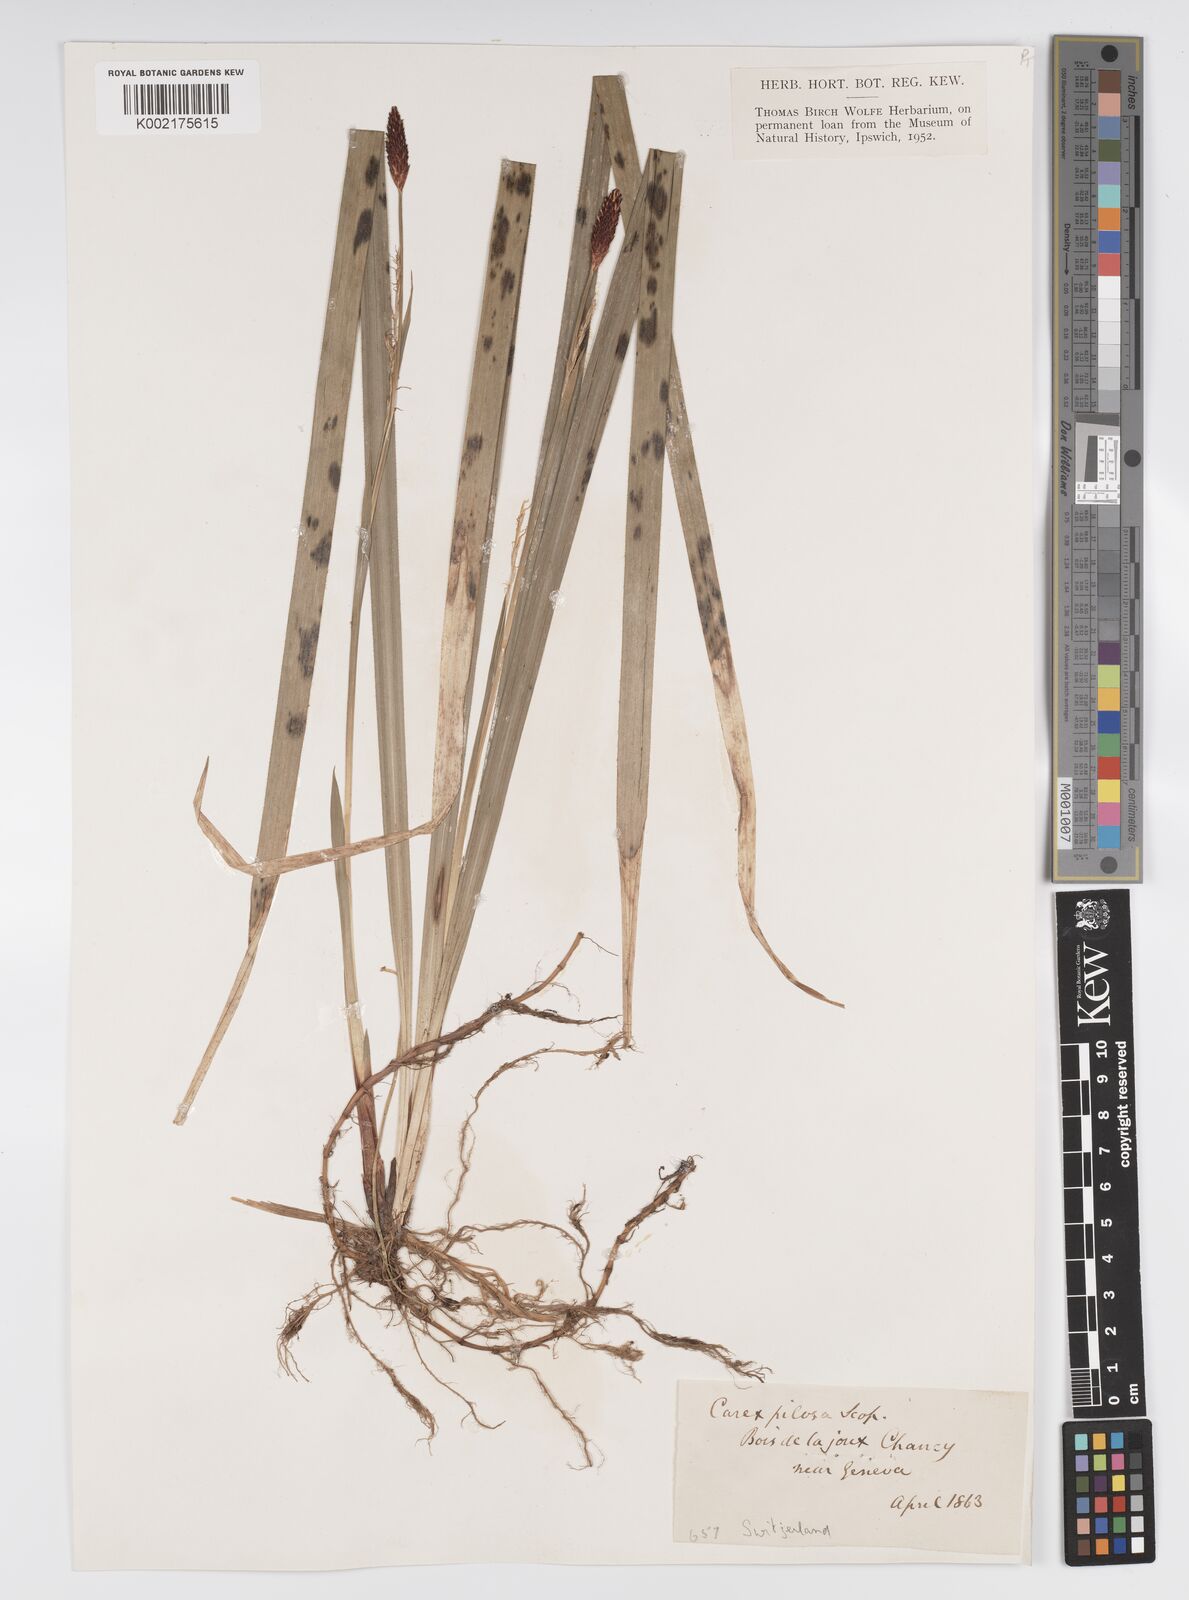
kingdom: Plantae
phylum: Tracheophyta
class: Liliopsida
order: Poales
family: Cyperaceae
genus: Carex
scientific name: Carex pilosa
